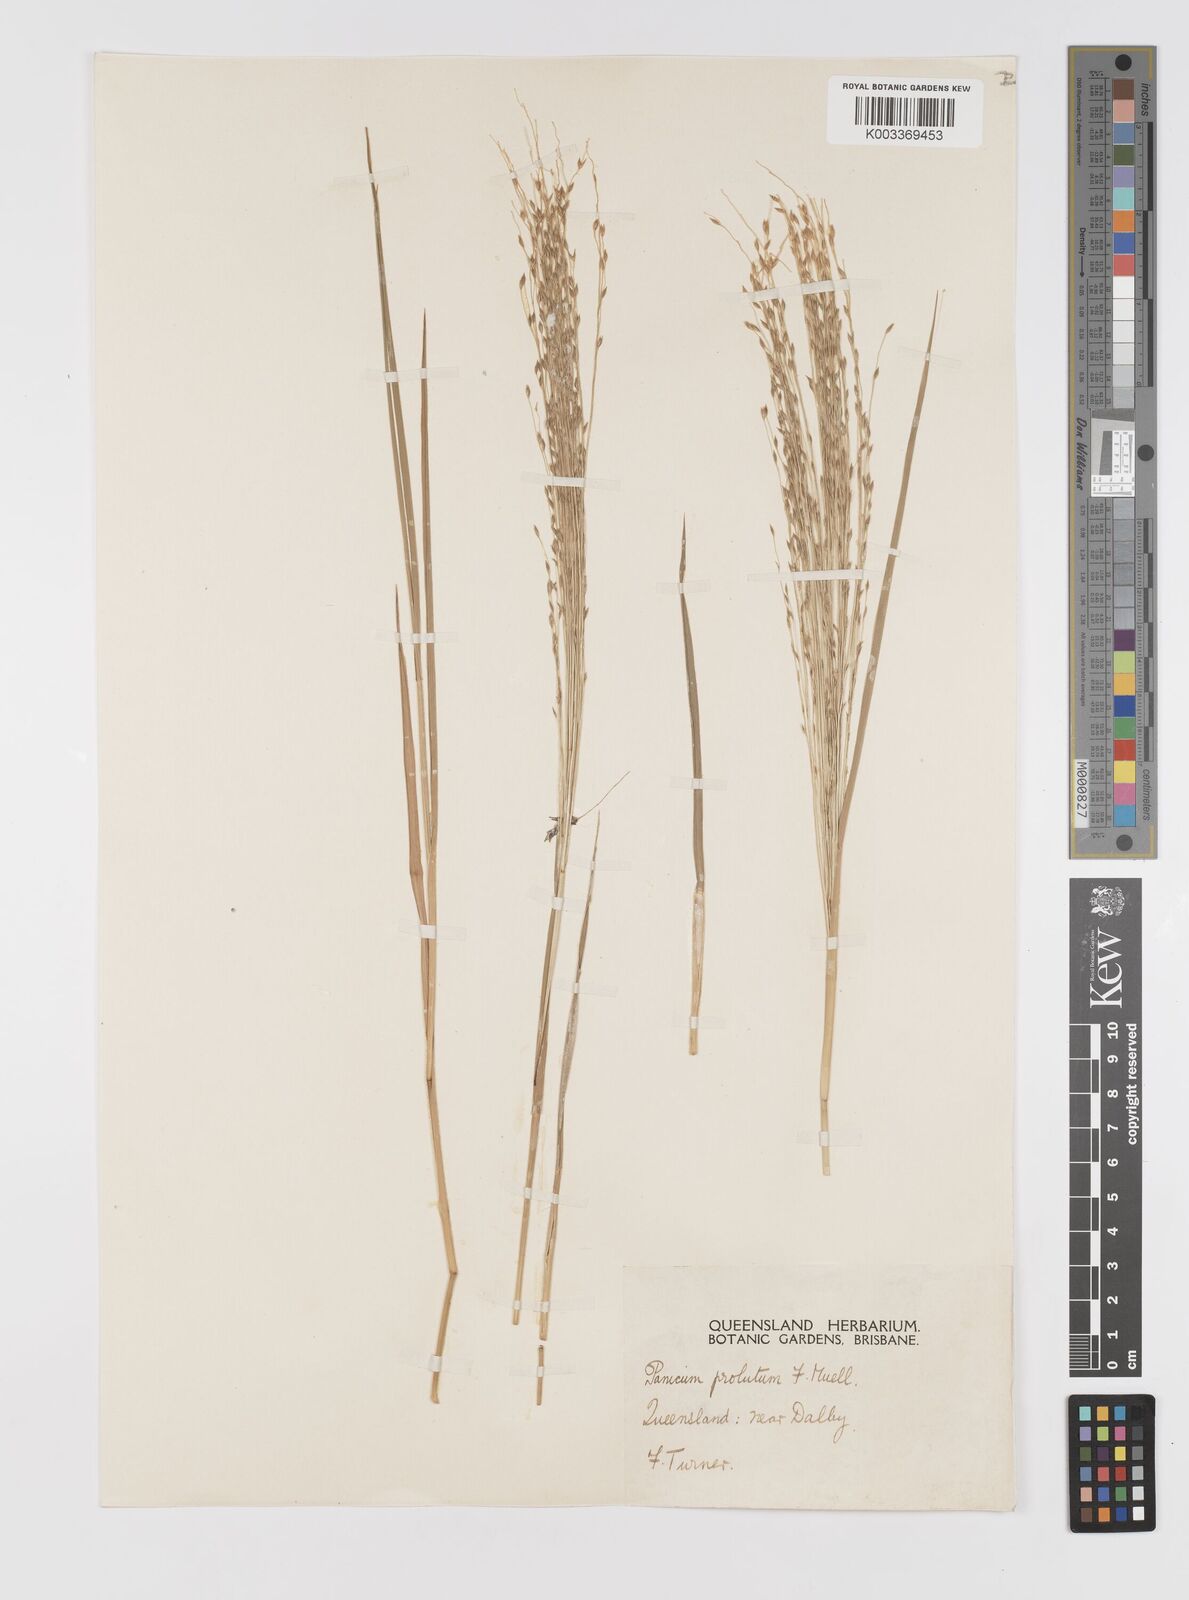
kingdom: Plantae
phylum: Tracheophyta
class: Liliopsida
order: Poales
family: Poaceae
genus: Walwhalleya
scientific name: Walwhalleya proluta
